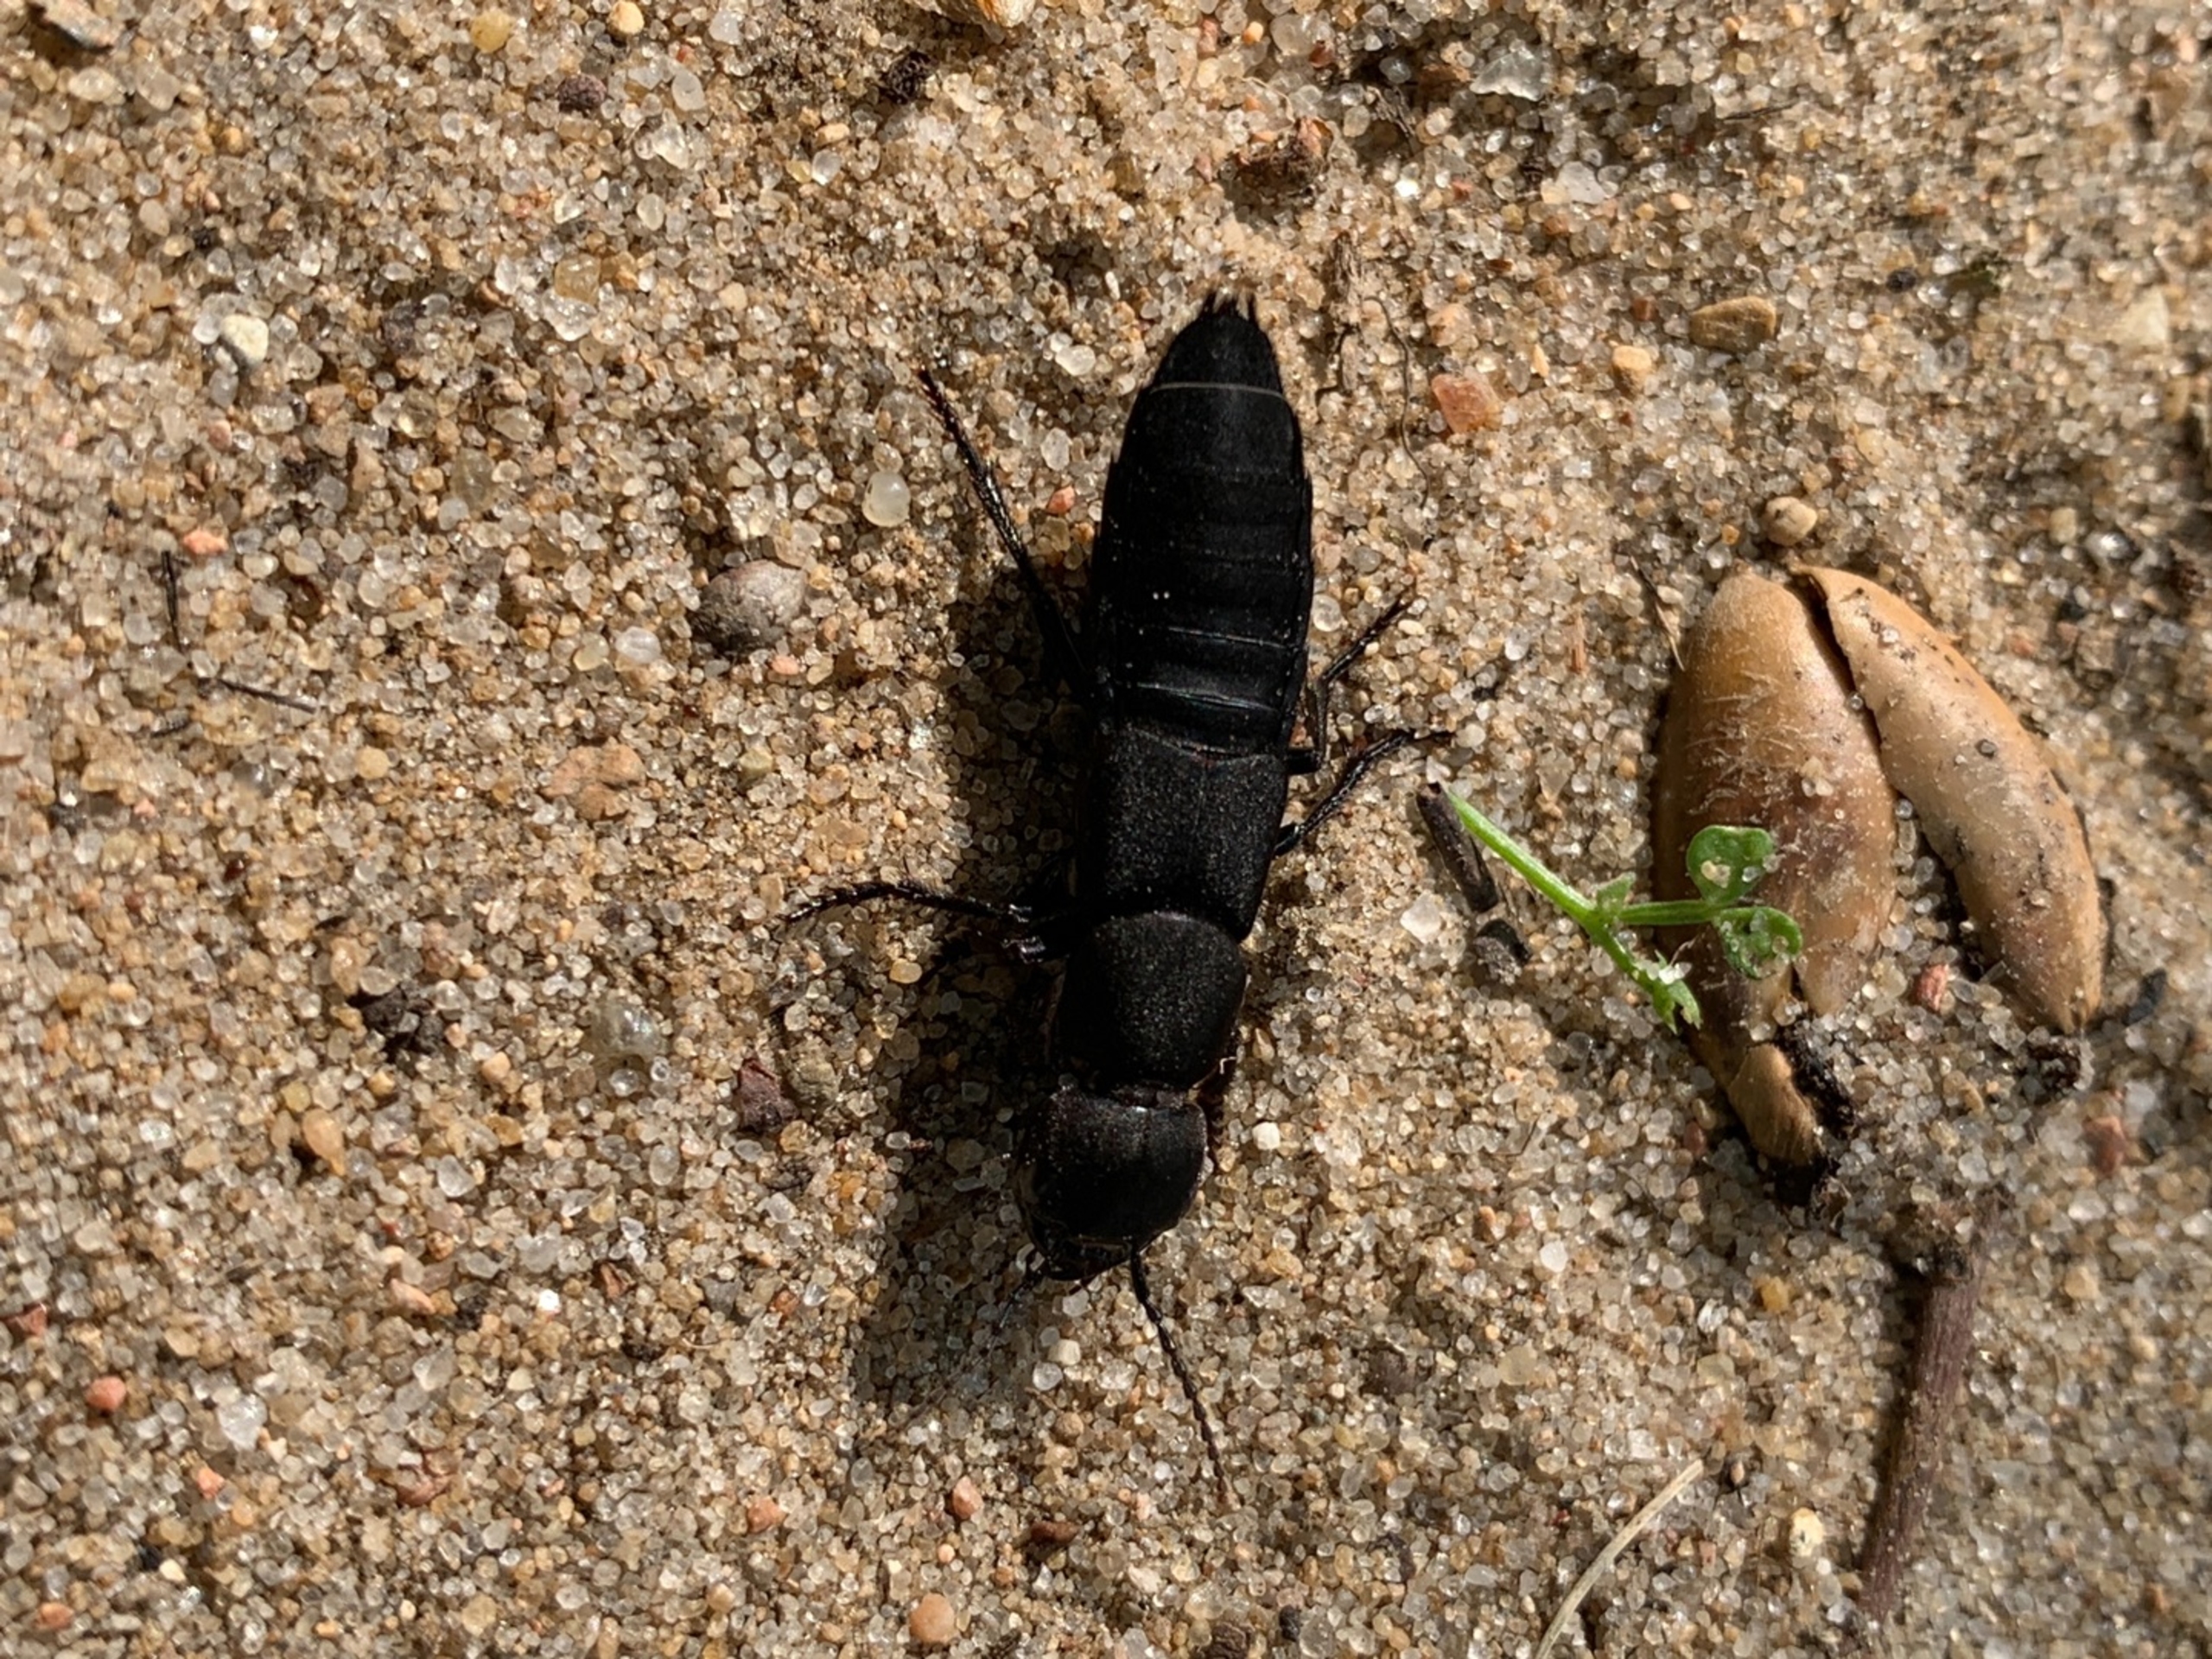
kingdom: Animalia
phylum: Arthropoda
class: Insecta
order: Coleoptera
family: Staphylinidae
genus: Ocypus
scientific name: Ocypus olens
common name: Stor rovbille
